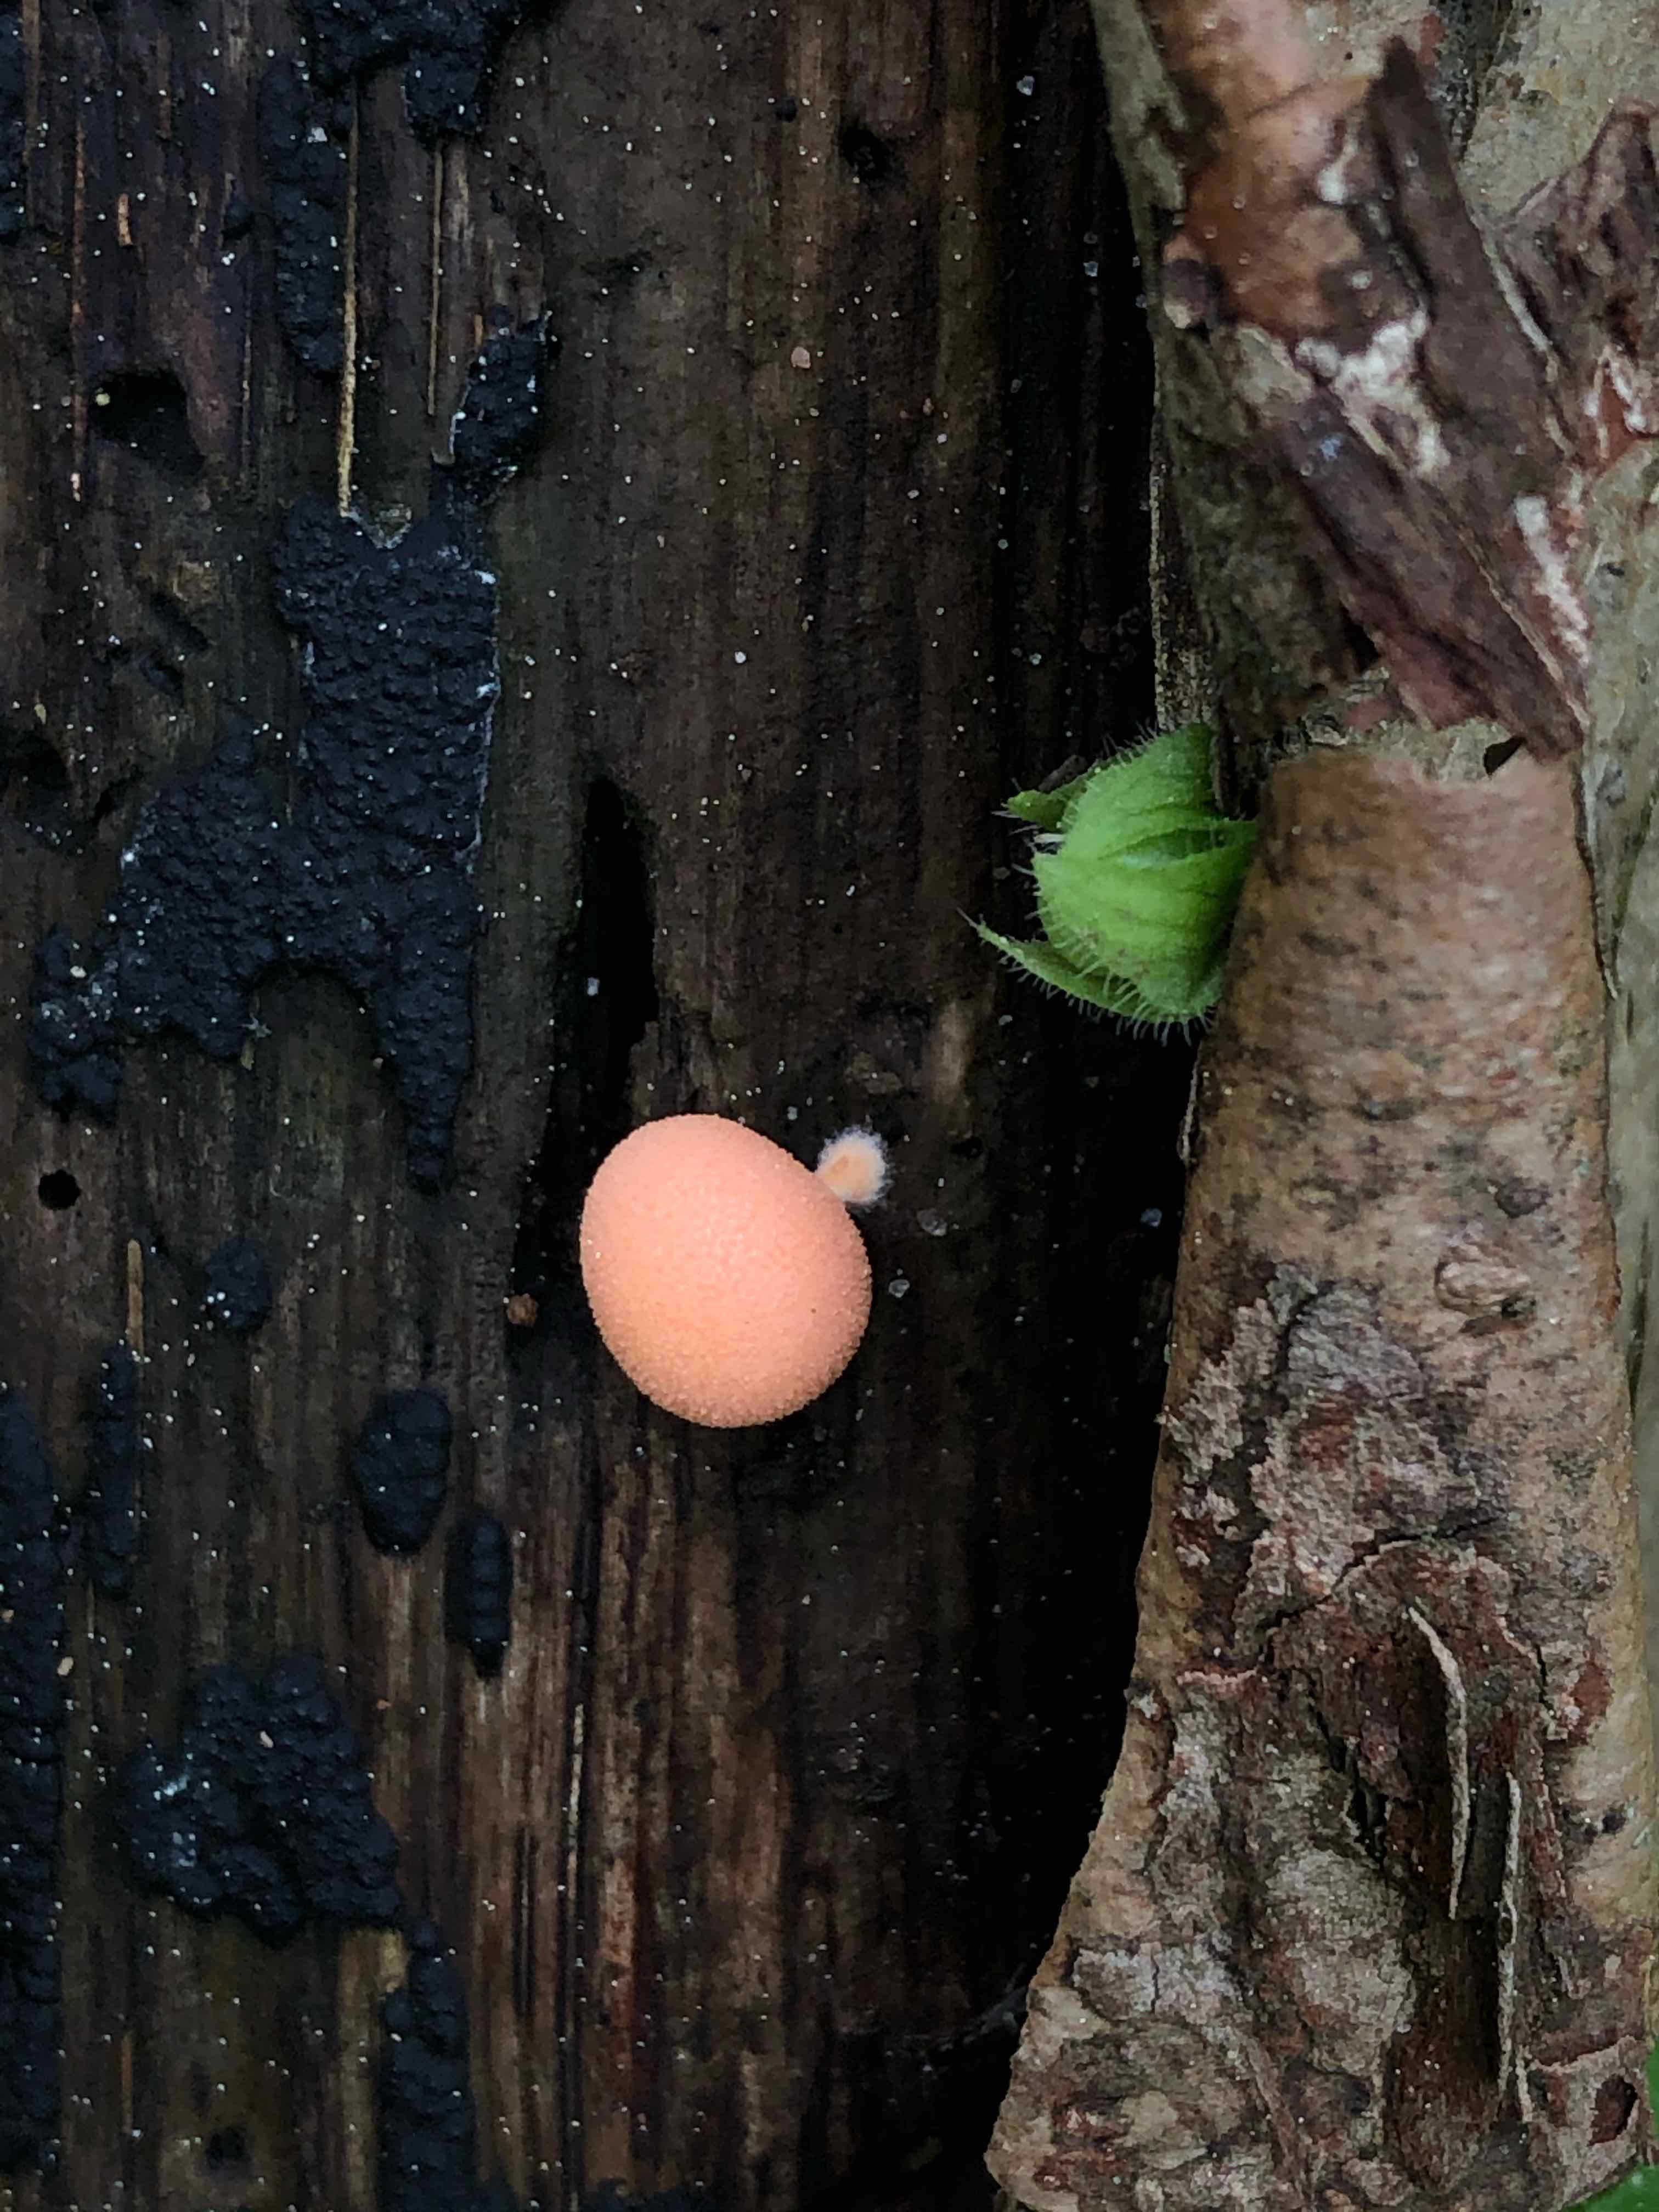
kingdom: Protozoa
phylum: Mycetozoa
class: Myxomycetes
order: Cribrariales
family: Tubiferaceae
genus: Lycogala
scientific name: Lycogala epidendrum
